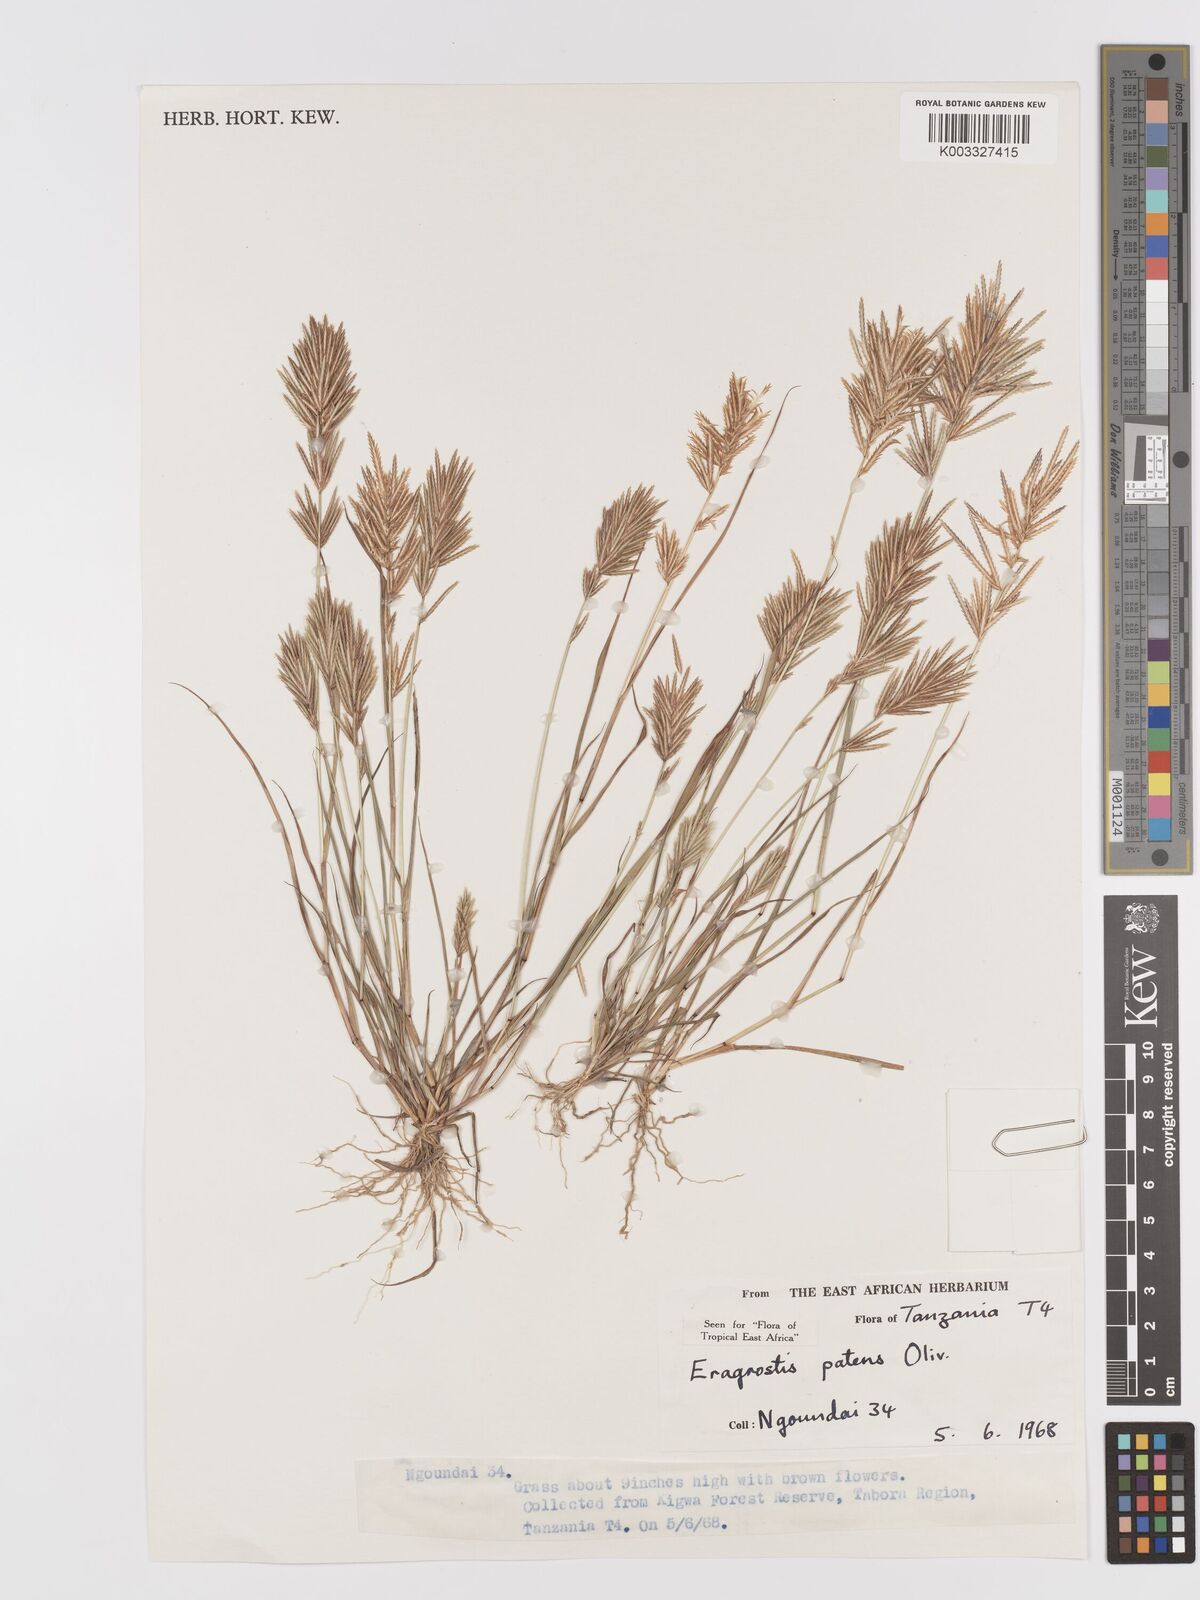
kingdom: Plantae
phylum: Tracheophyta
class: Liliopsida
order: Poales
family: Poaceae
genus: Eragrostis
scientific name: Eragrostis patens
